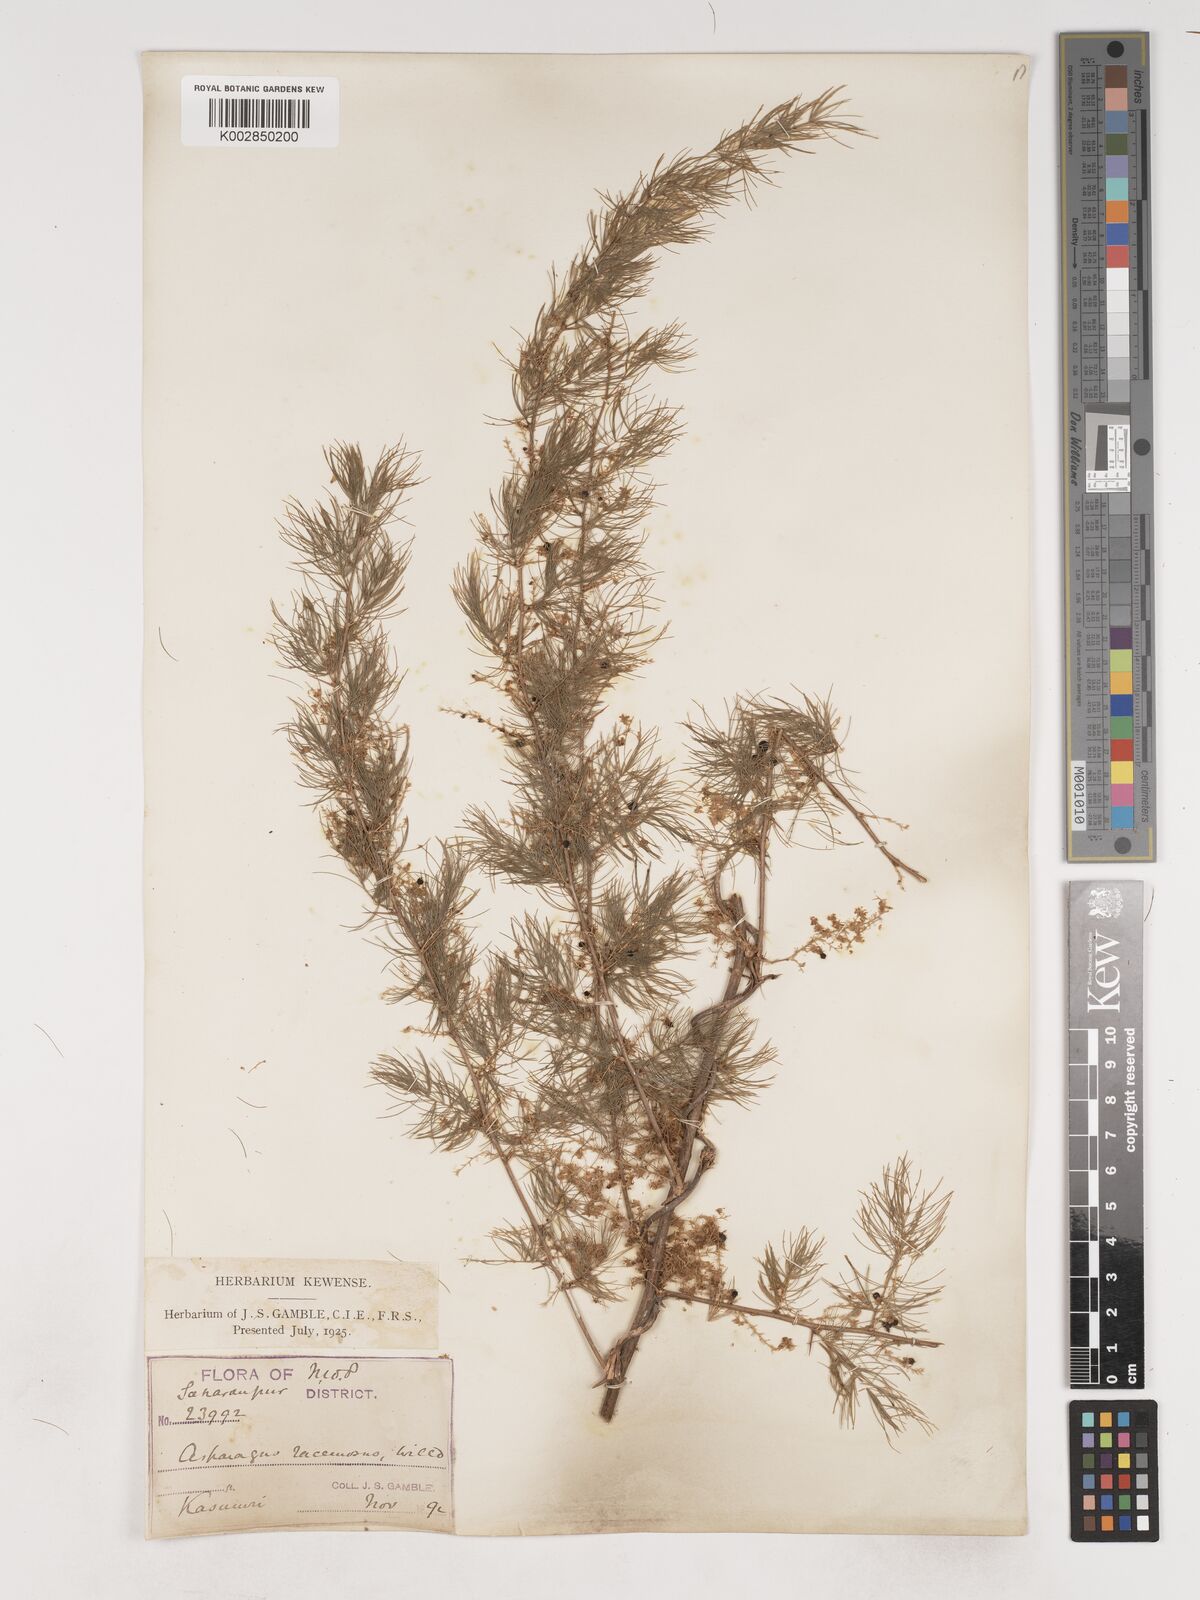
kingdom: Plantae
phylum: Tracheophyta
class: Liliopsida
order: Asparagales
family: Asparagaceae
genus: Asparagus
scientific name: Asparagus adscendens
